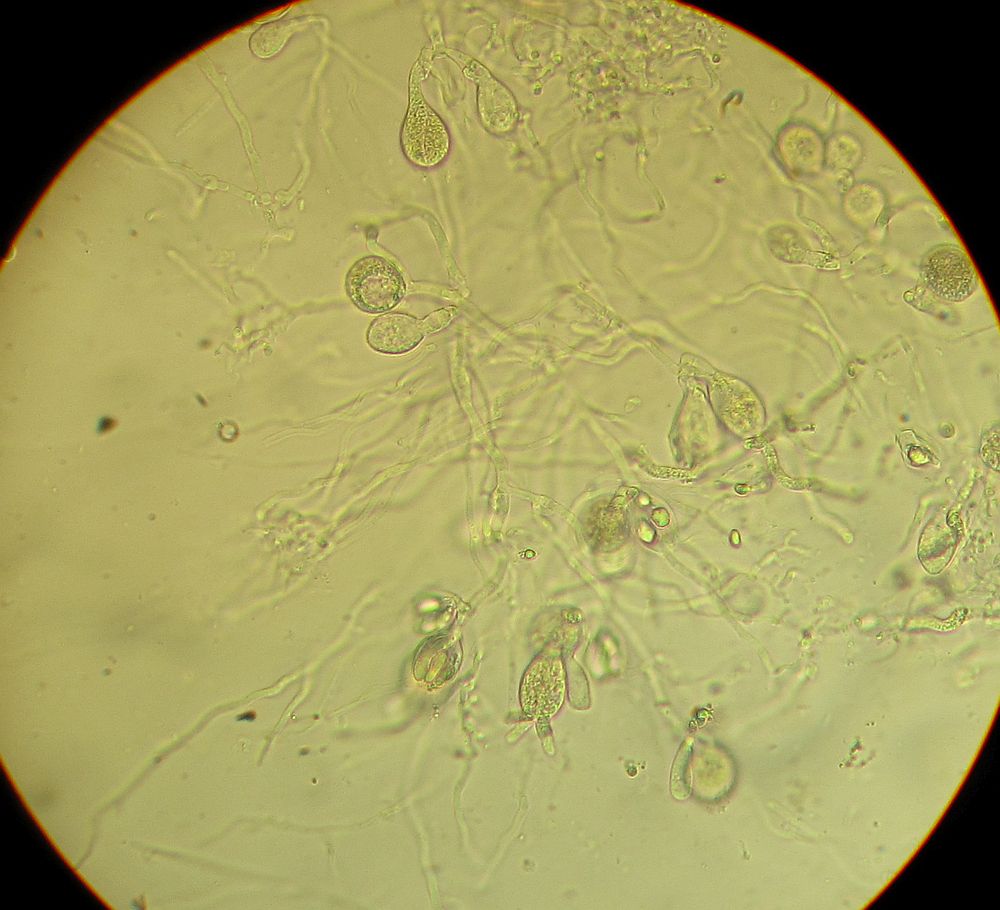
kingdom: Fungi
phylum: Basidiomycota
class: Agaricomycetes
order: Auriculariales
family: Auriculariaceae
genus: Exidia
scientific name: Exidia thuretiana
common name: hvidlig bævretop
